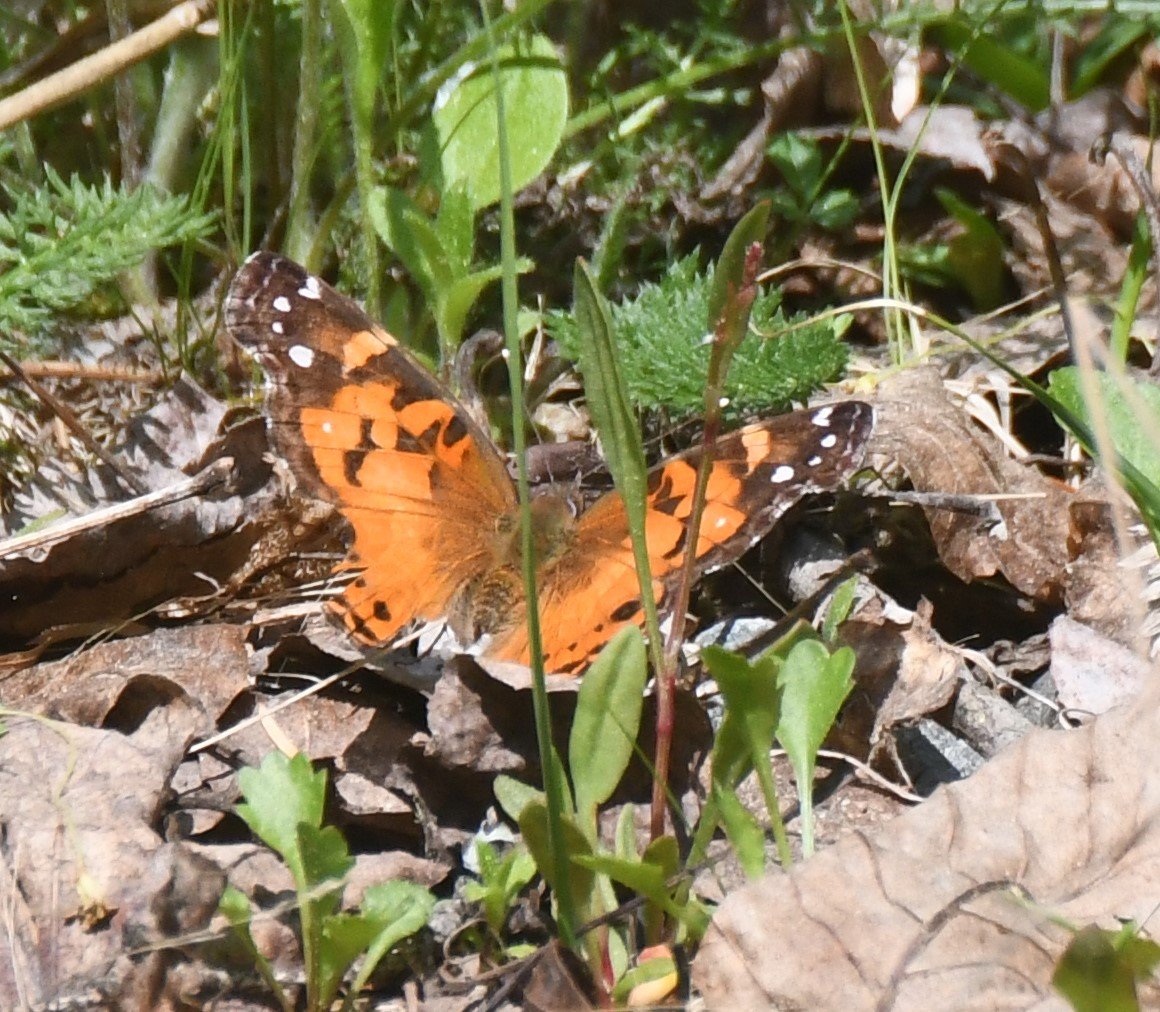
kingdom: Animalia
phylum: Arthropoda
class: Insecta
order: Lepidoptera
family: Nymphalidae
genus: Vanessa
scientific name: Vanessa virginiensis
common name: American Lady
